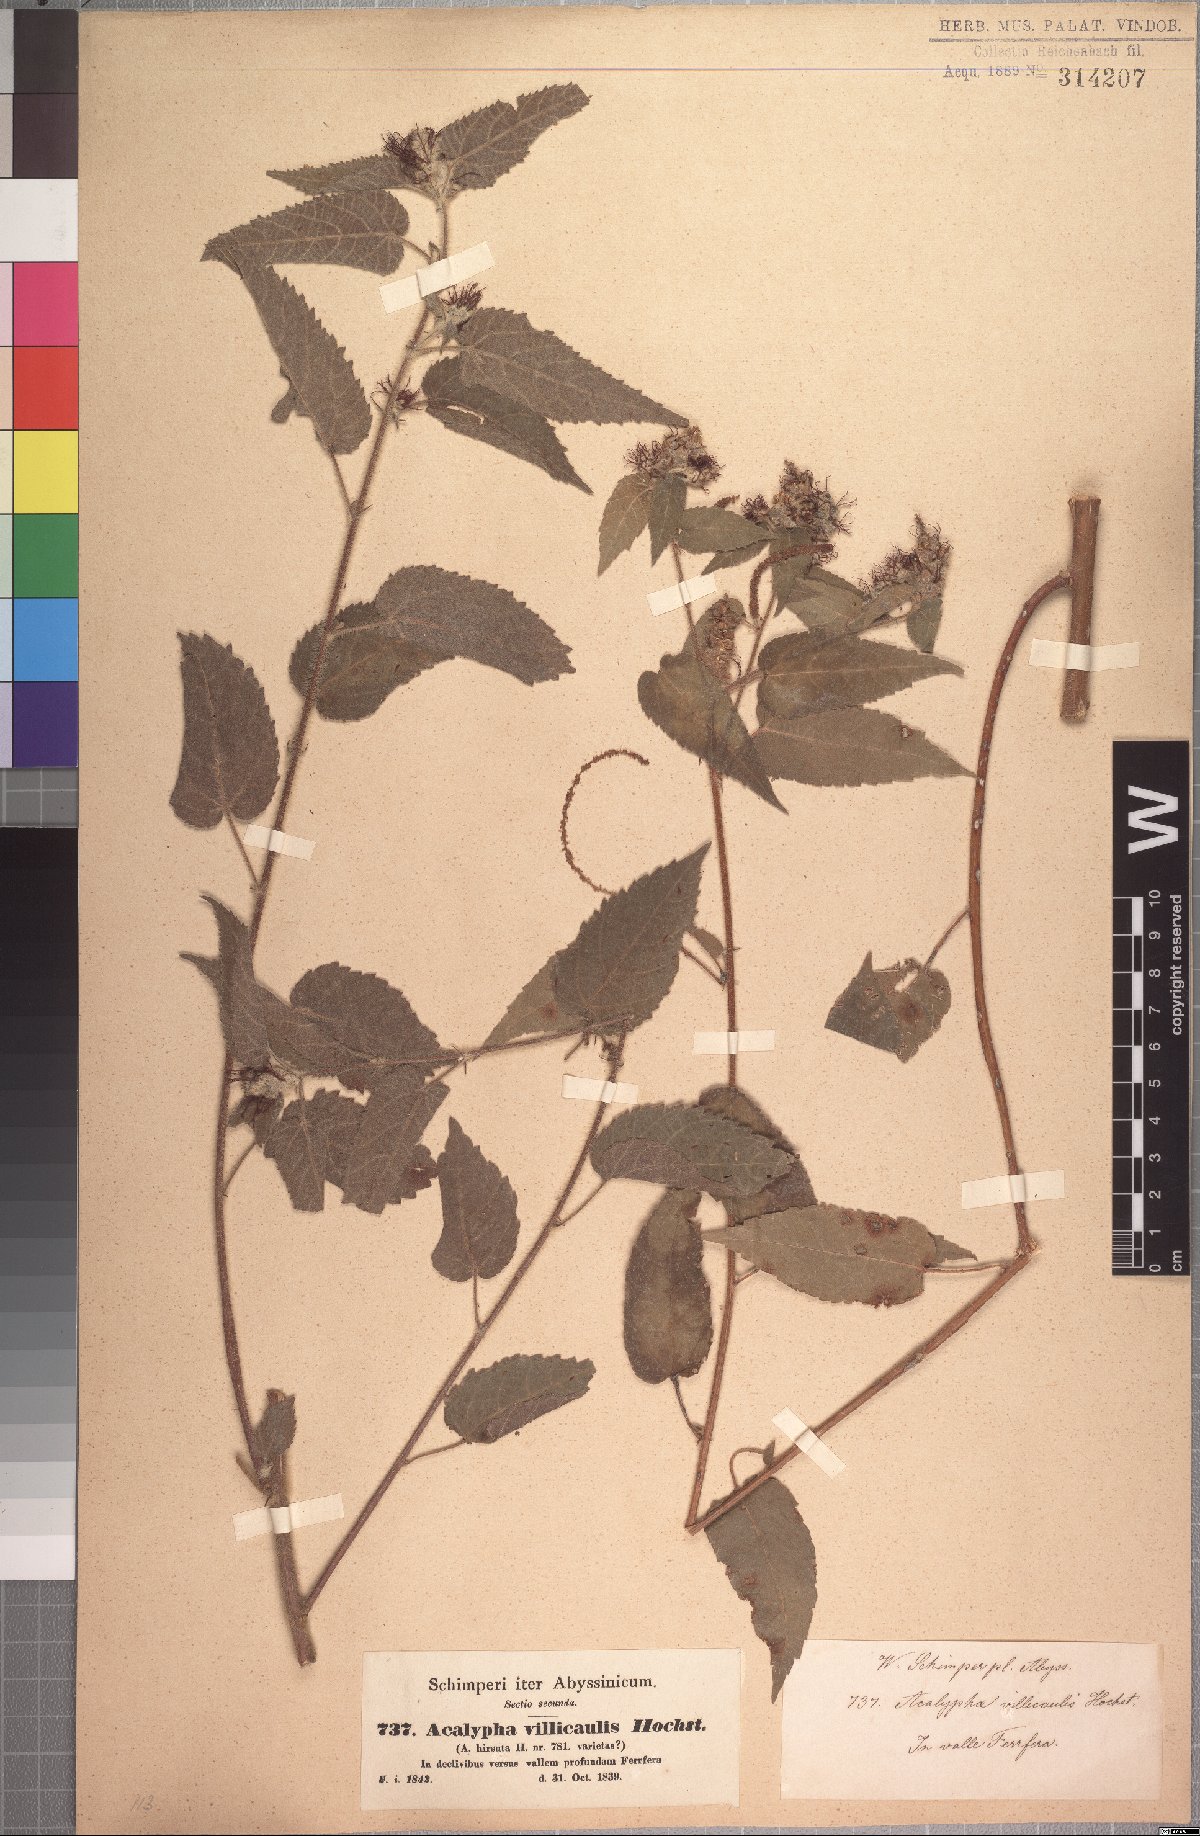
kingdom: Plantae
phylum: Tracheophyta
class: Magnoliopsida
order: Malpighiales
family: Euphorbiaceae
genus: Acalypha
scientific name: Acalypha petiolaris
